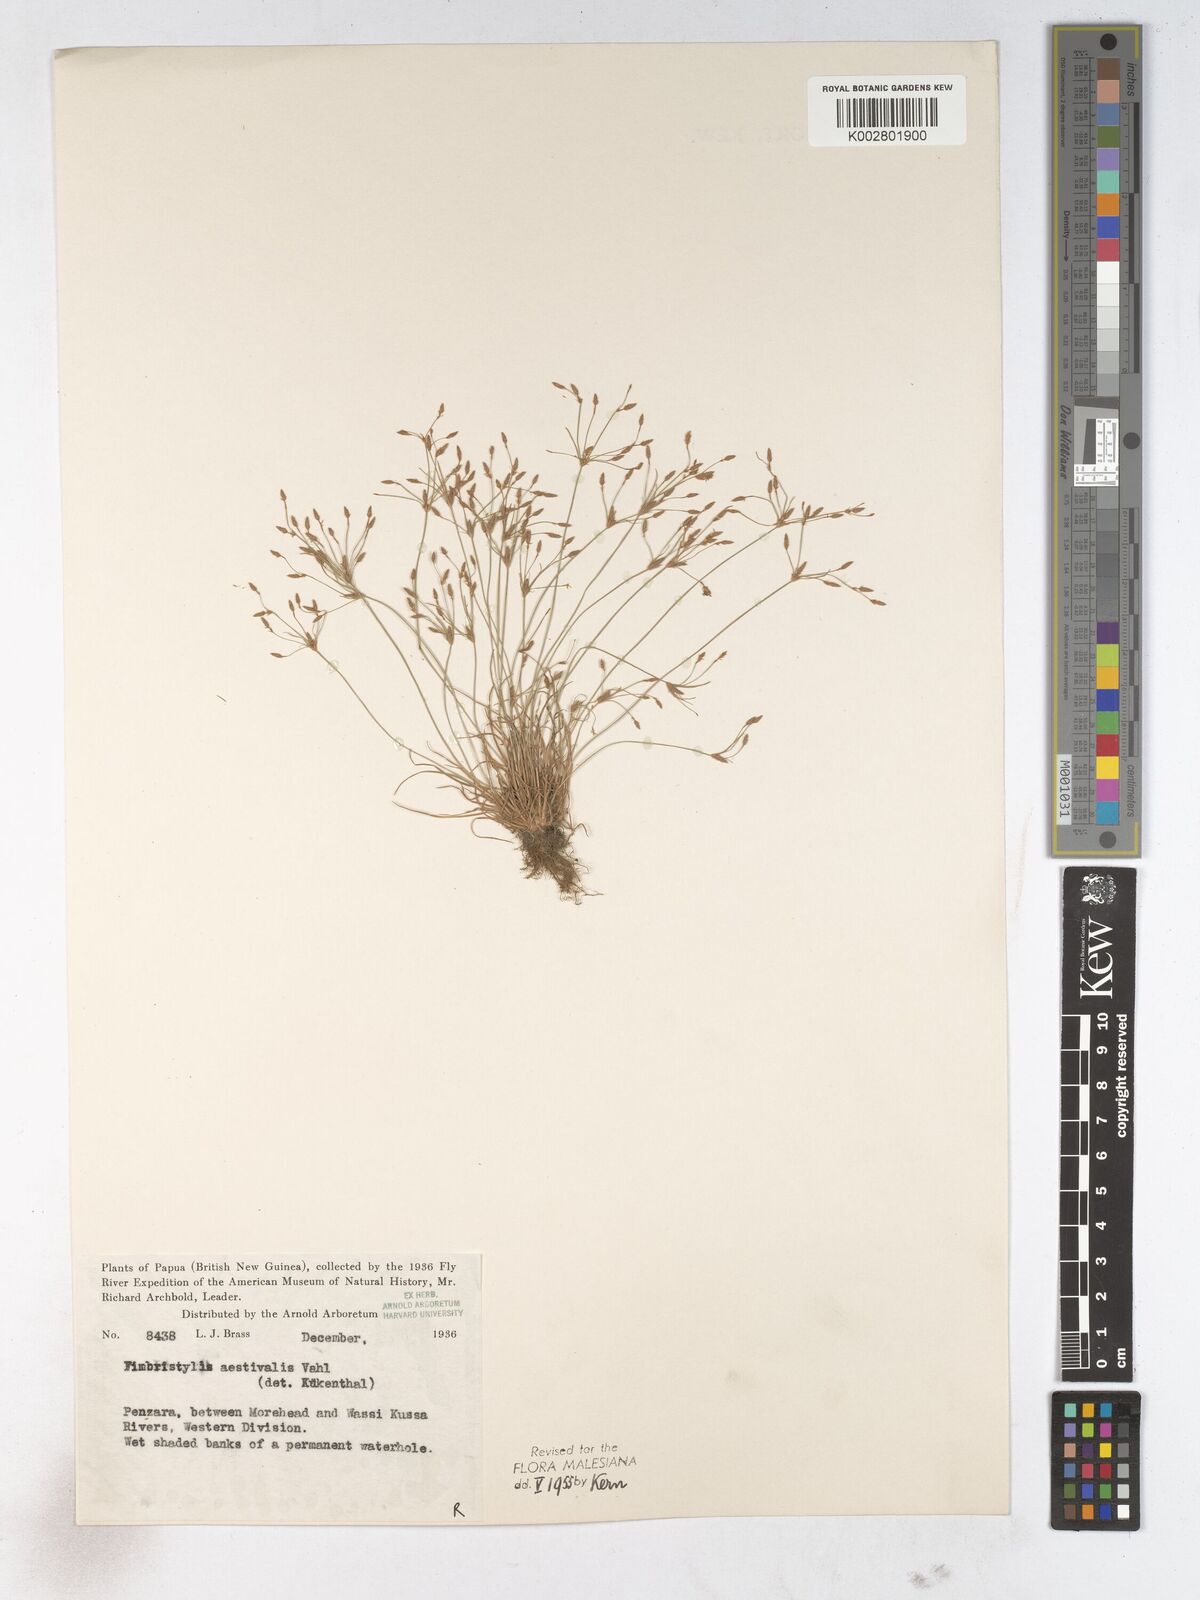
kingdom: Plantae
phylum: Tracheophyta
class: Liliopsida
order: Poales
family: Cyperaceae
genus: Fimbristylis
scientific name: Fimbristylis aestivalis
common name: Summer fimbry
